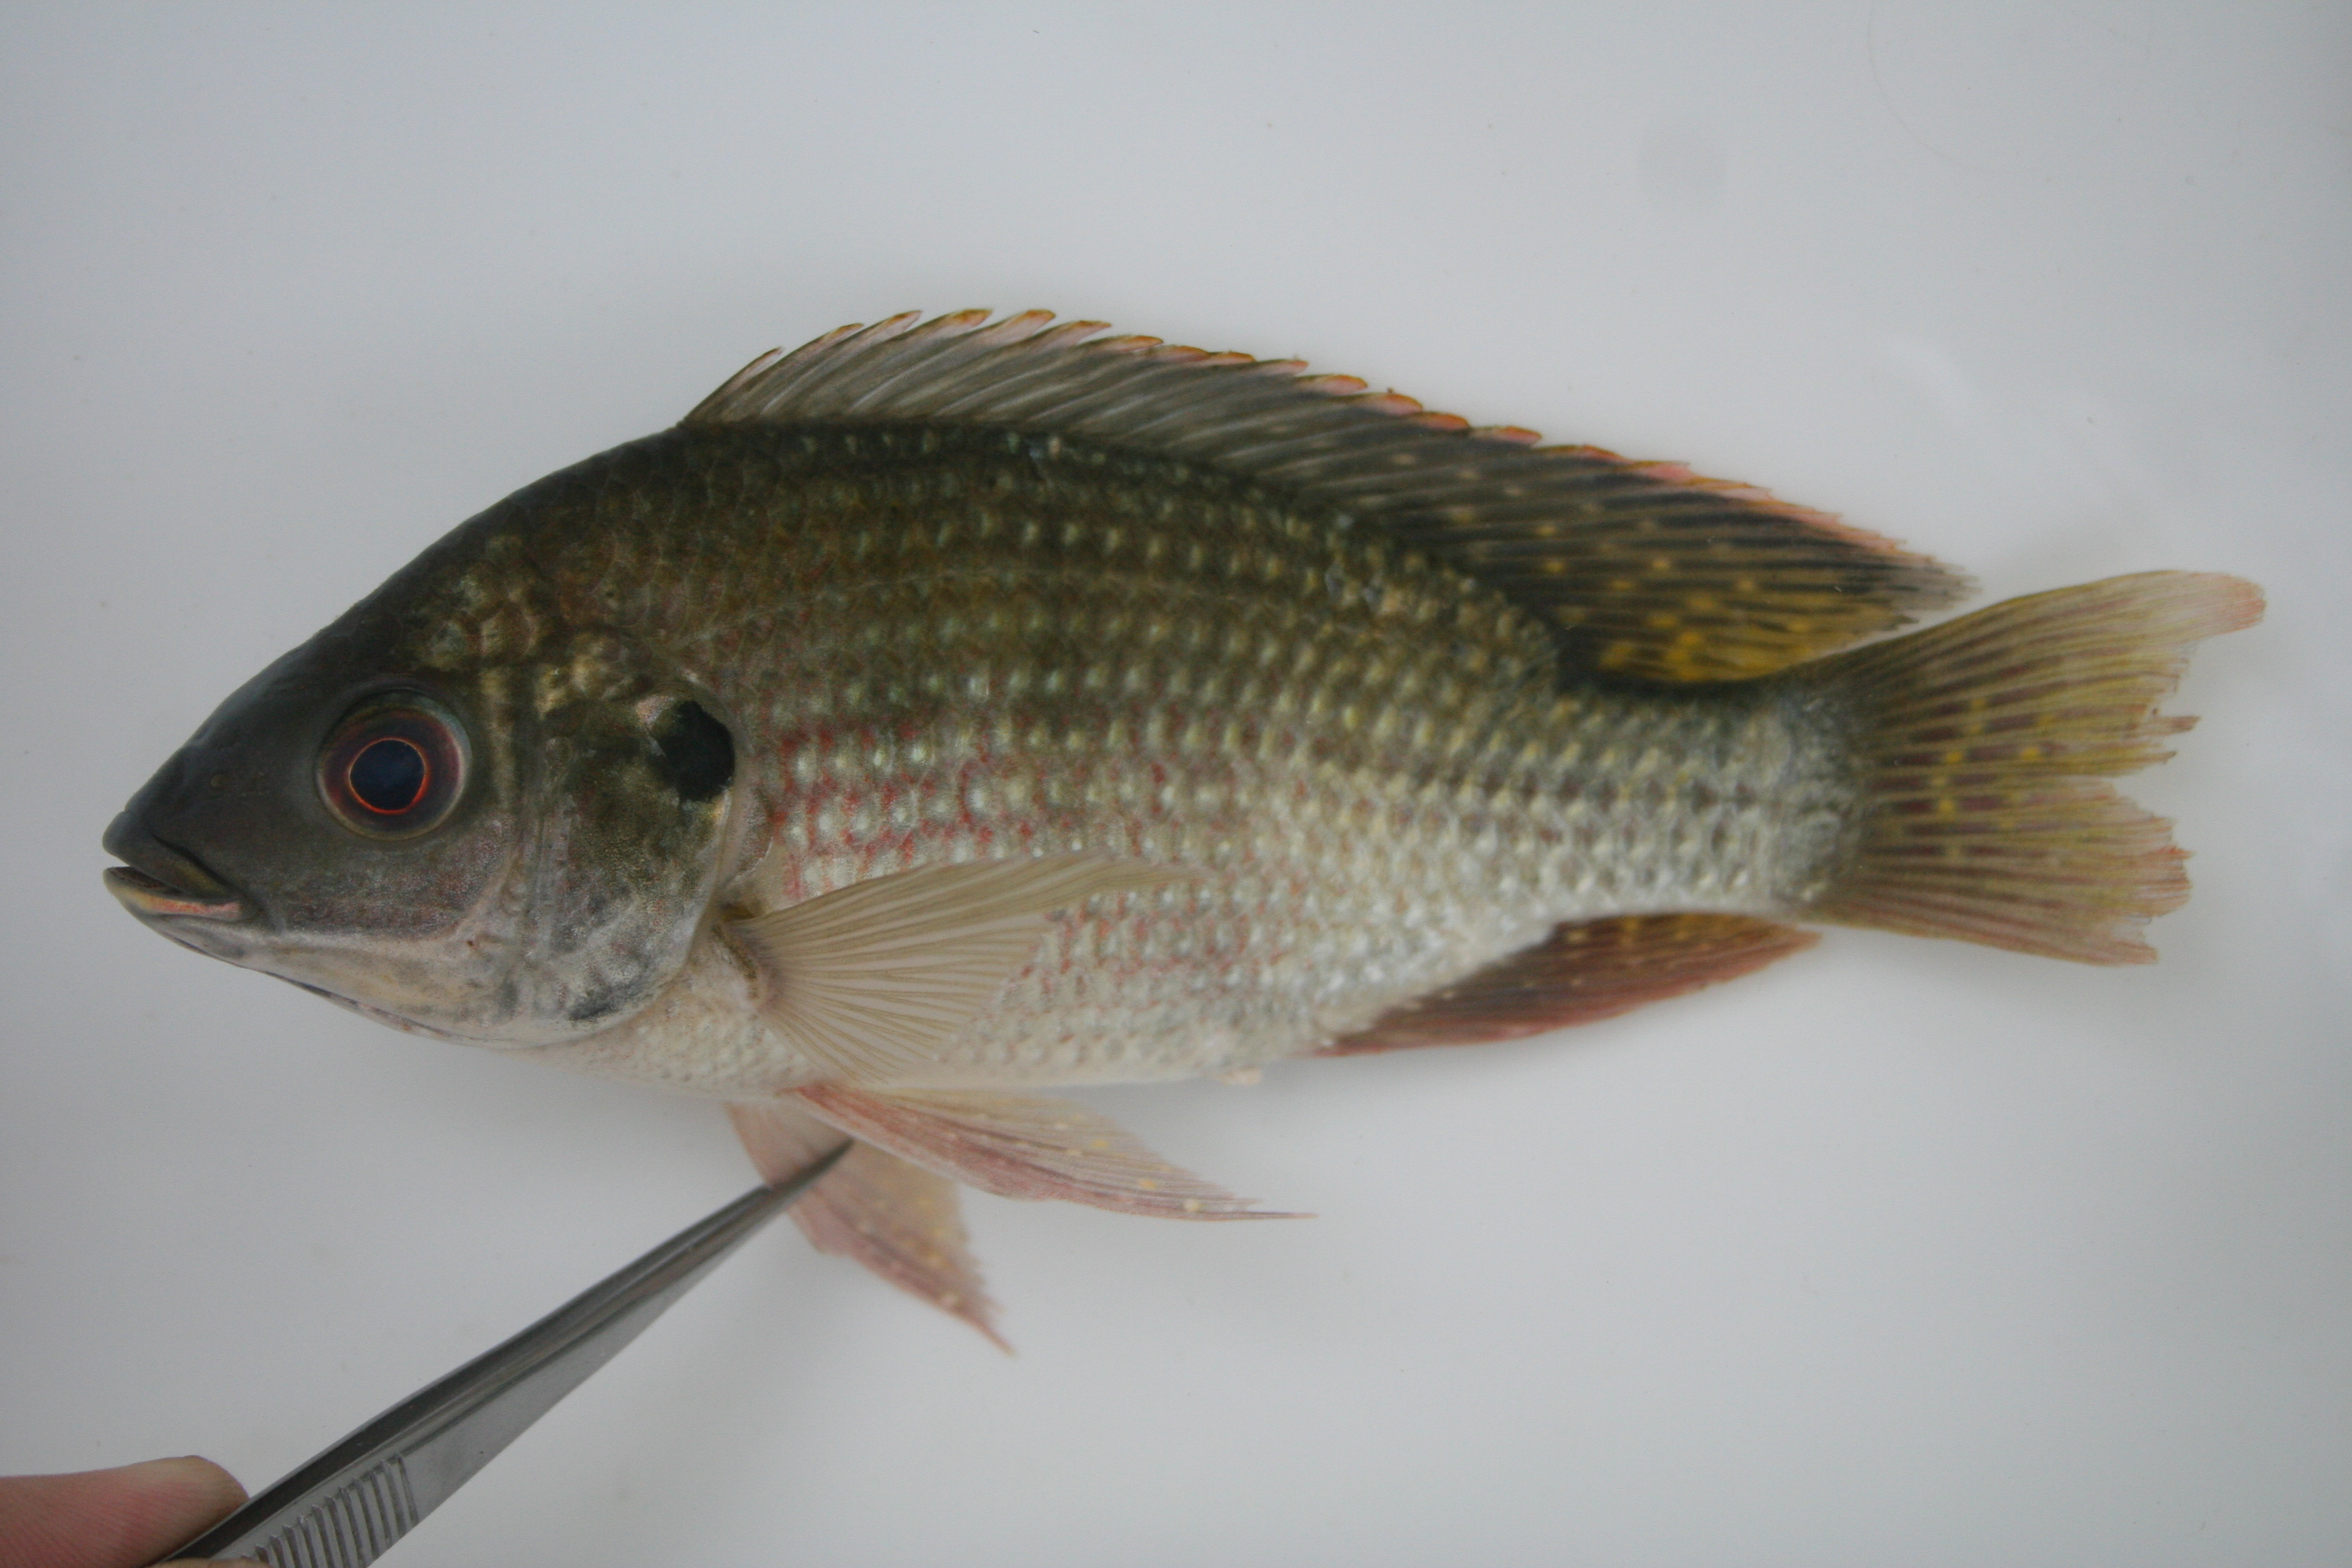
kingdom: Animalia
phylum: Chordata
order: Perciformes
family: Cichlidae
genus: Oreochromis
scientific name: Oreochromis
